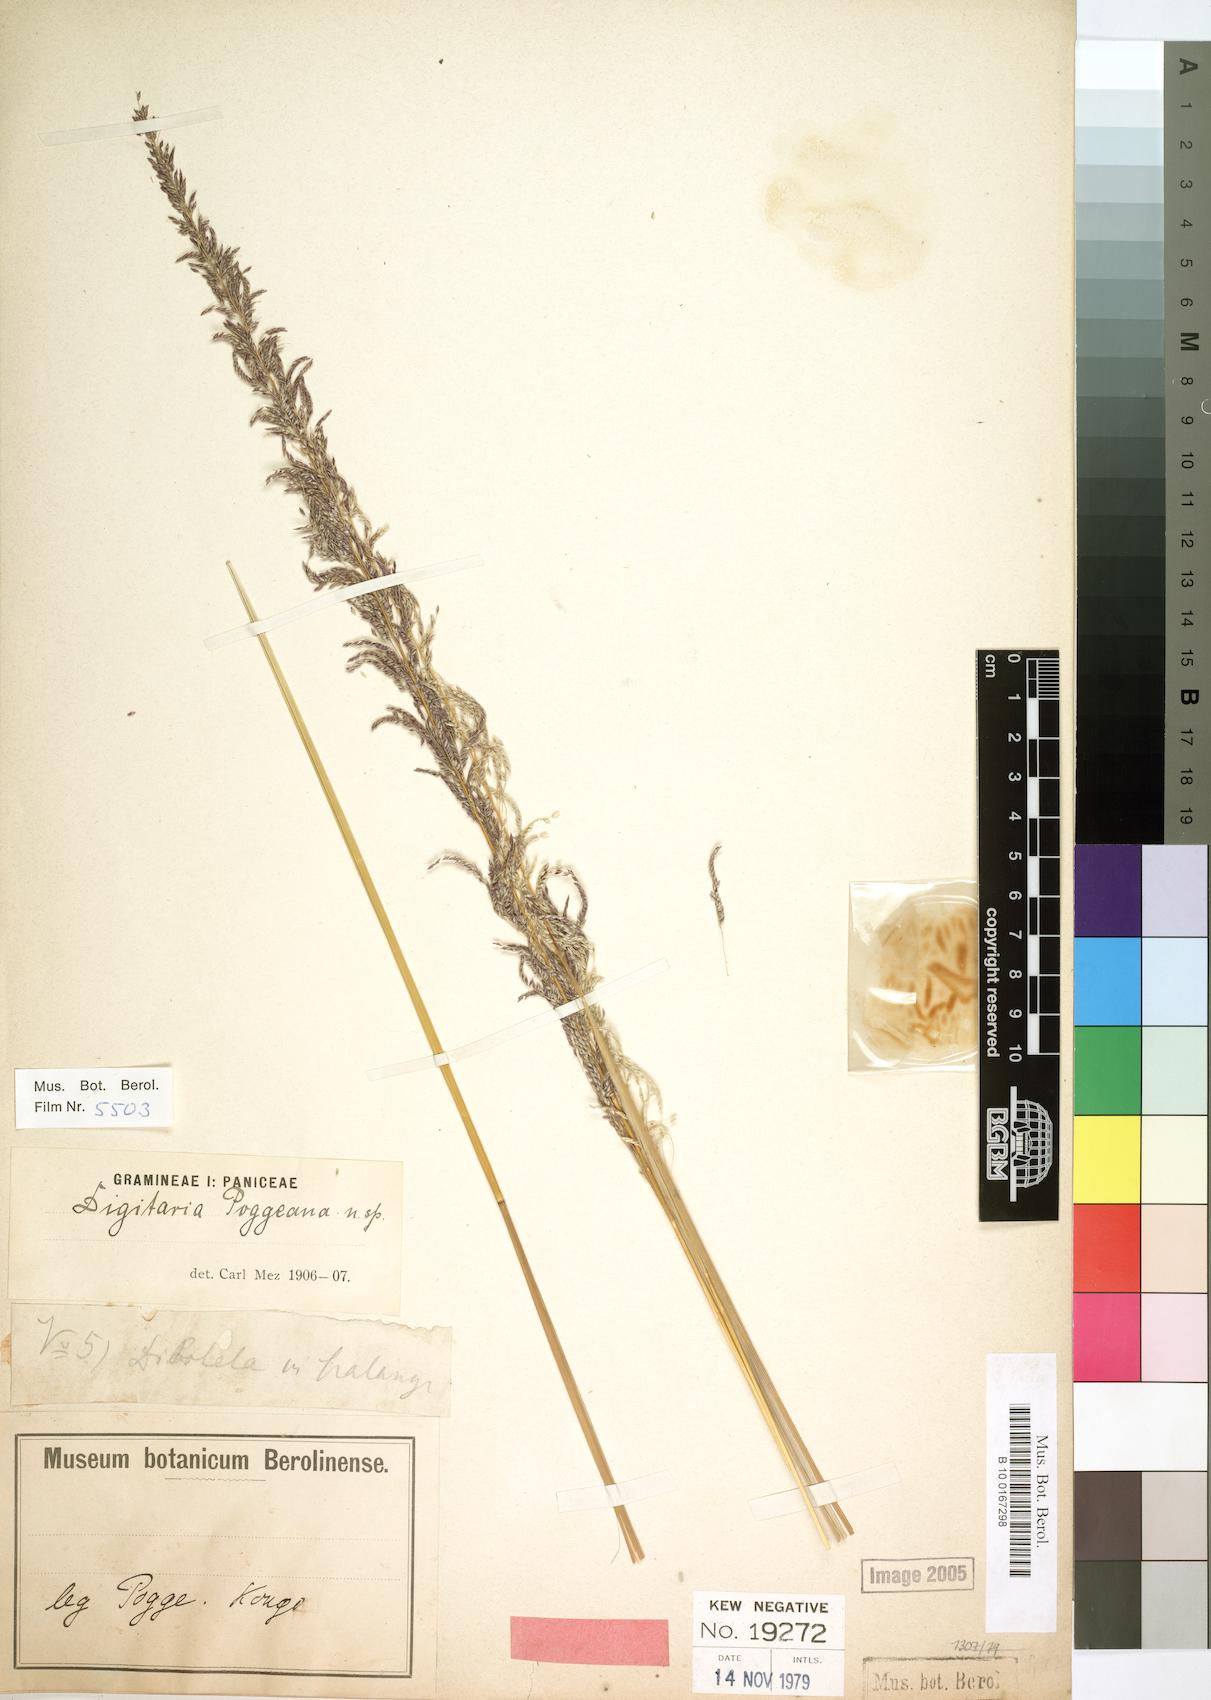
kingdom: Plantae
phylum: Tracheophyta
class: Liliopsida
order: Poales
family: Poaceae
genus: Digitaria
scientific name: Digitaria poggeana
